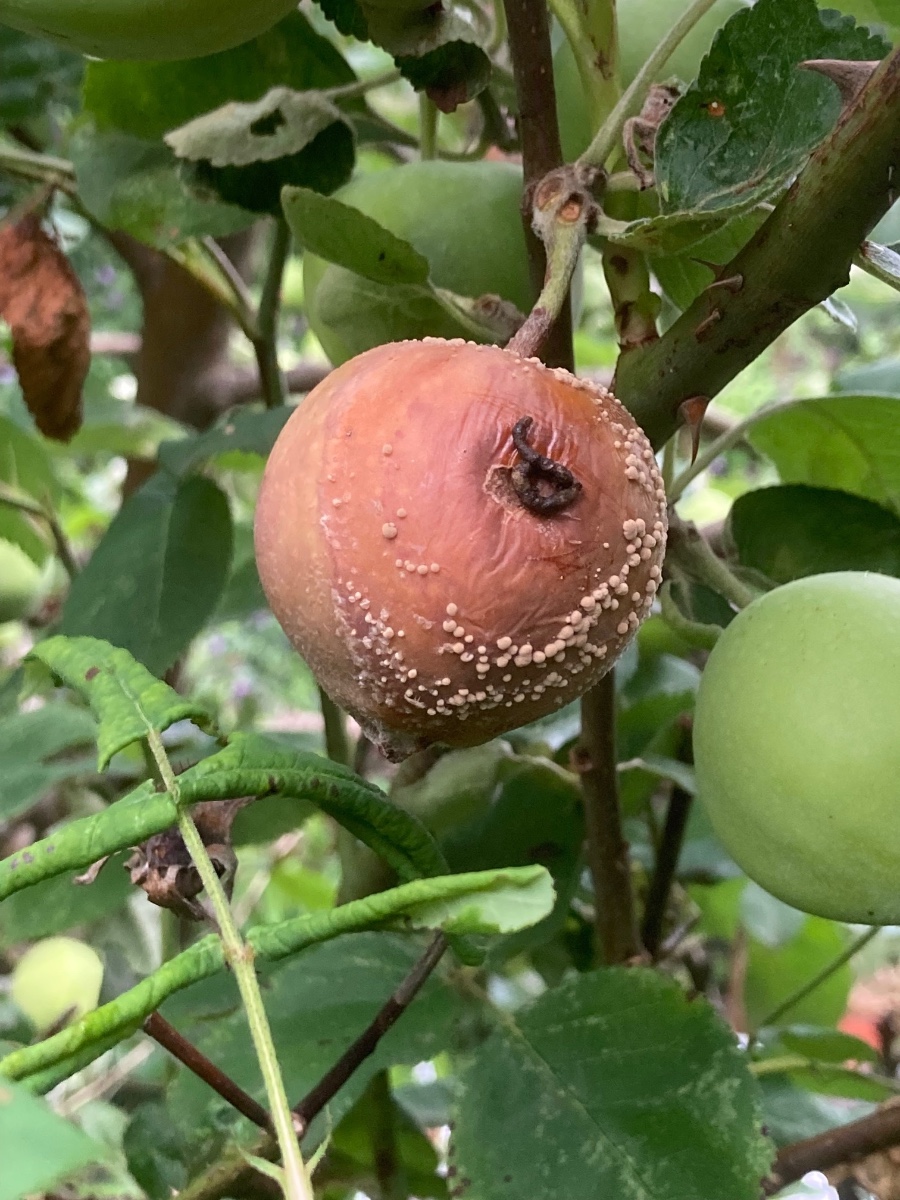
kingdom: Fungi
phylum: Ascomycota
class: Leotiomycetes
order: Helotiales
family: Sclerotiniaceae
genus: Monilinia
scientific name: Monilinia fructigena
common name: æble-knoldskive
